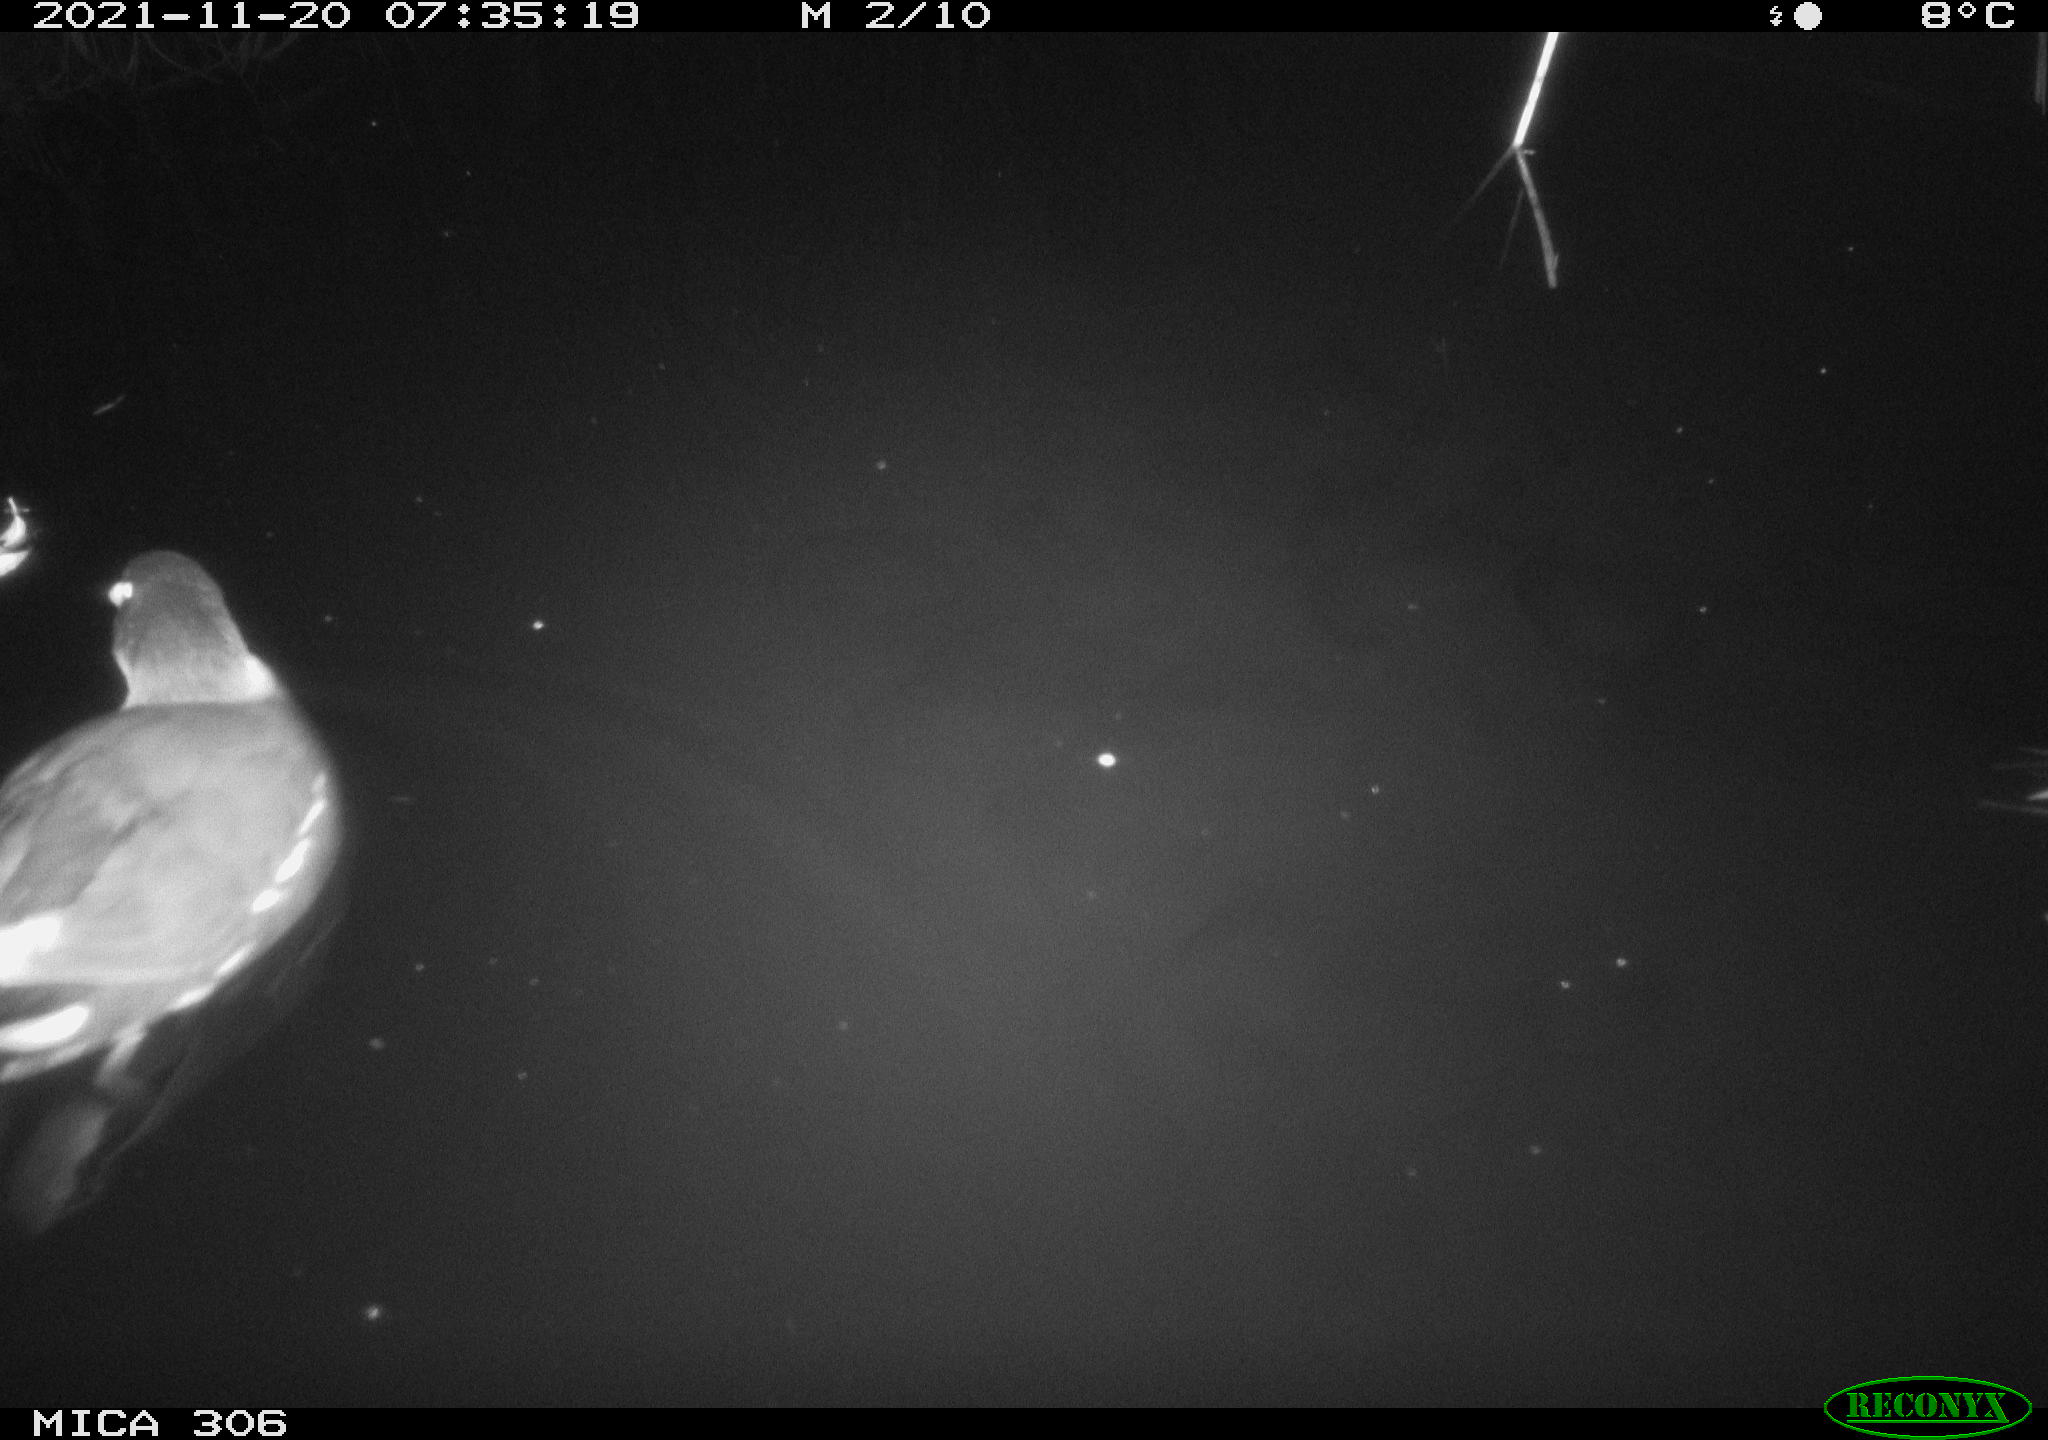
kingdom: Animalia
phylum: Chordata
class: Aves
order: Gruiformes
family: Rallidae
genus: Fulica
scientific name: Fulica atra
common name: Eurasian coot
